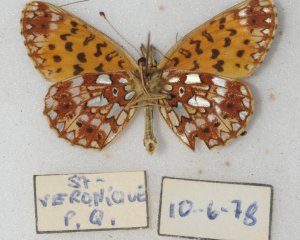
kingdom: Animalia
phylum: Arthropoda
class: Insecta
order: Lepidoptera
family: Nymphalidae
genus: Boloria
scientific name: Boloria selene
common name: Silver-bordered Fritillary
